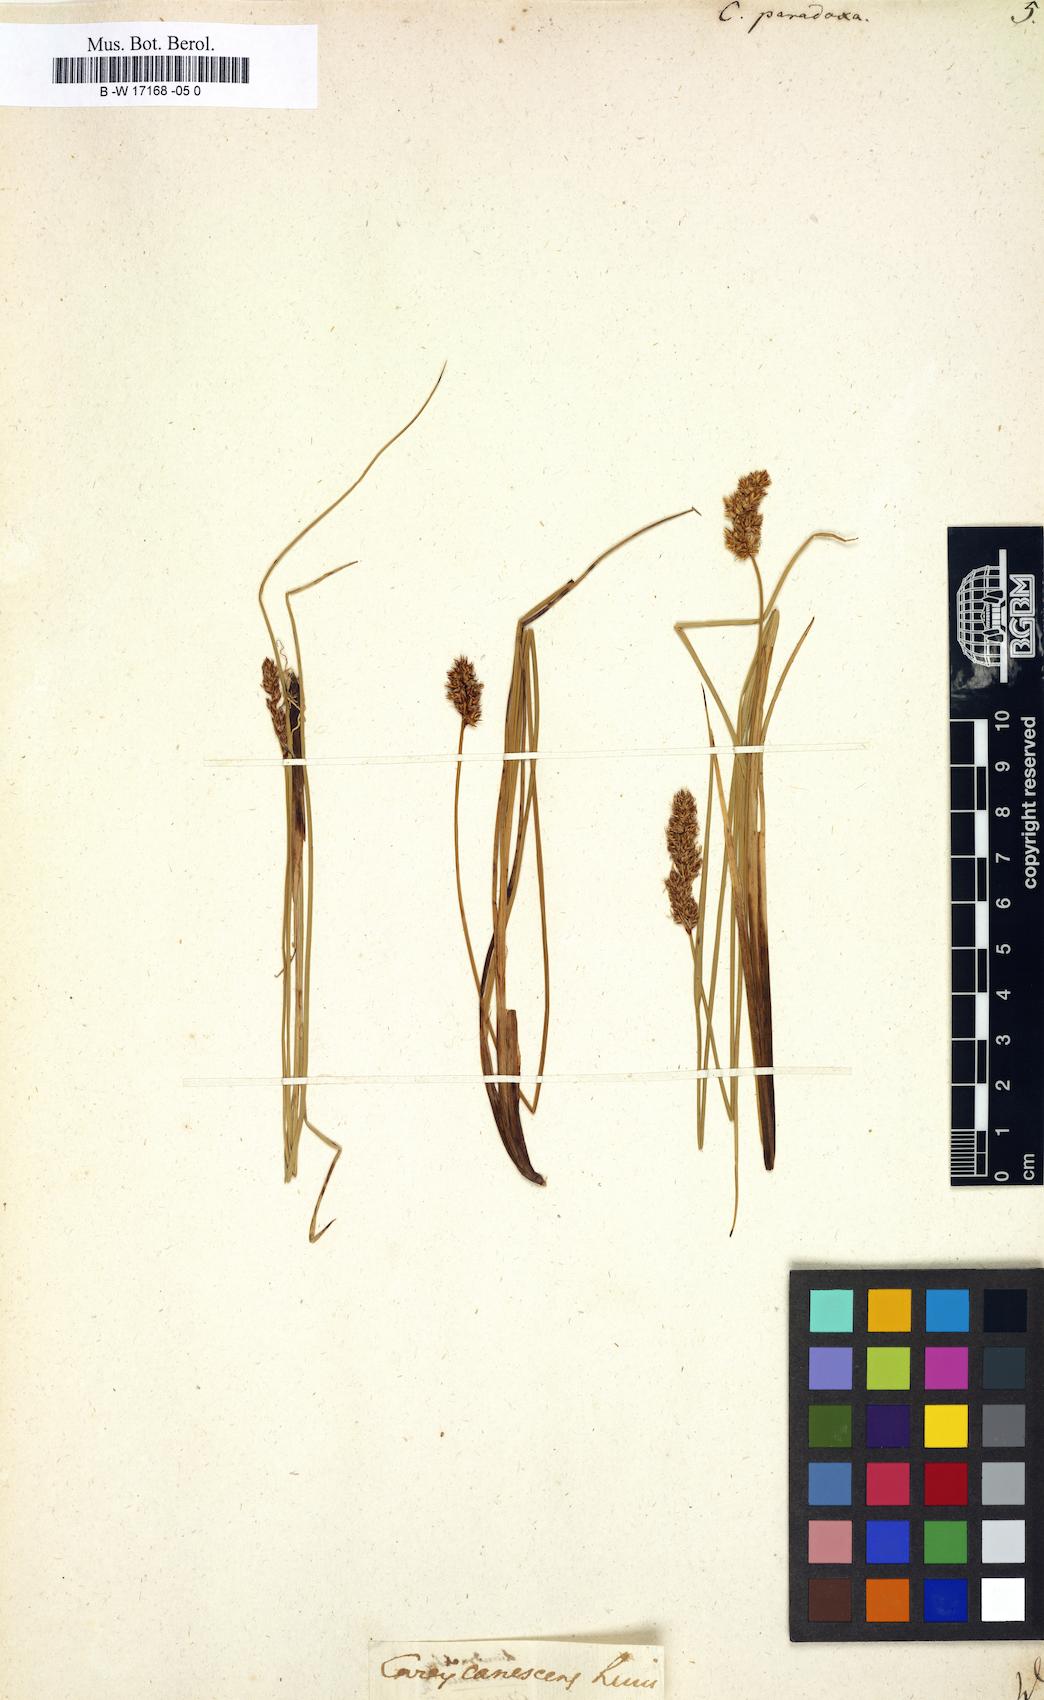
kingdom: Plantae
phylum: Tracheophyta
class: Liliopsida
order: Poales
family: Cyperaceae
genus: Carex
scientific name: Carex
